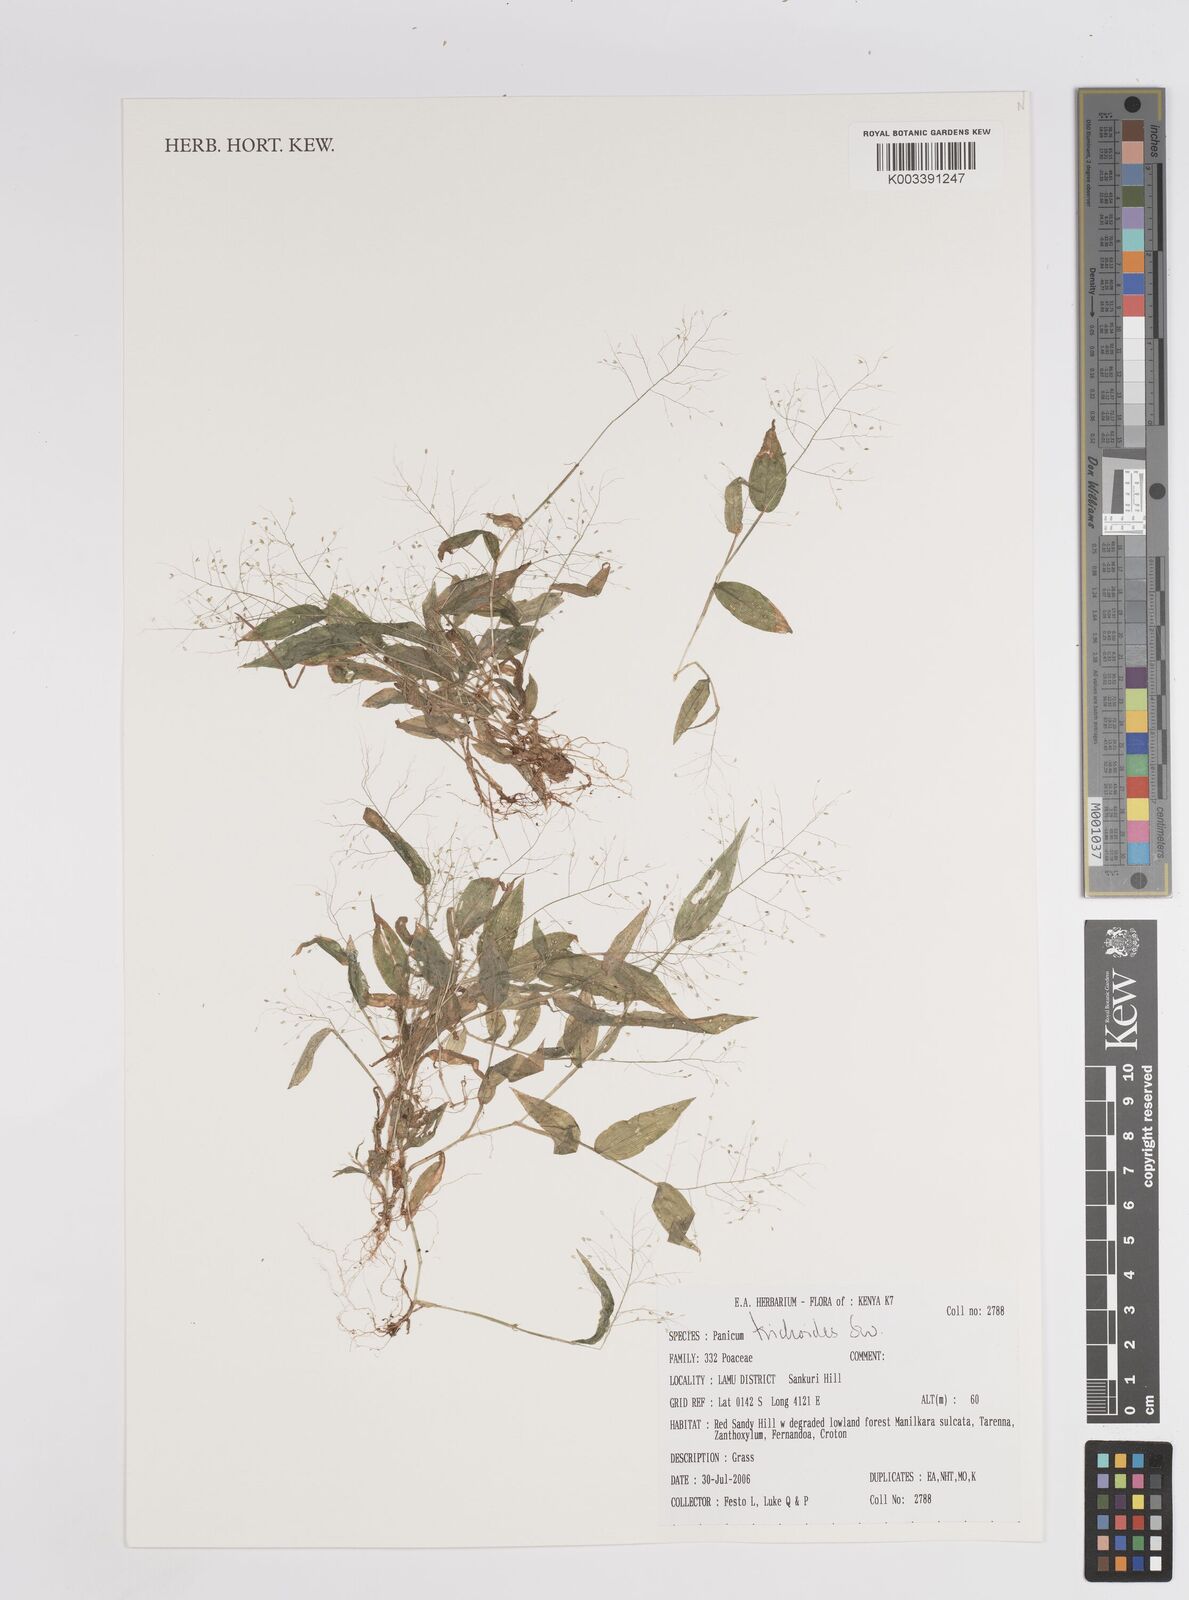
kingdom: Plantae
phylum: Tracheophyta
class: Liliopsida
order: Poales
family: Poaceae
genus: Panicum
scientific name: Panicum trichoides
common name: Tickle grass
